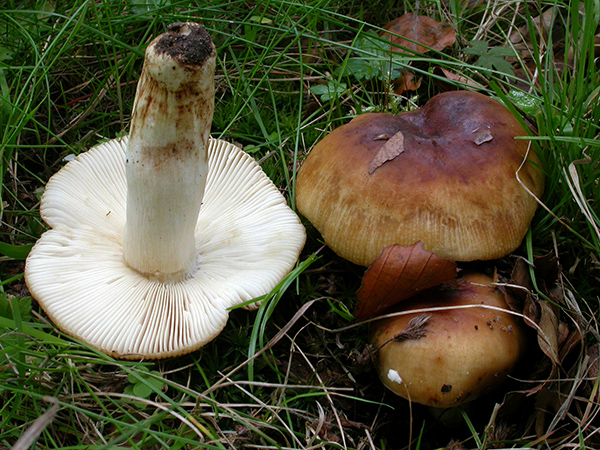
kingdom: Fungi
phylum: Basidiomycota
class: Agaricomycetes
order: Russulales
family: Russulaceae
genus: Russula
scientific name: Russula grata
